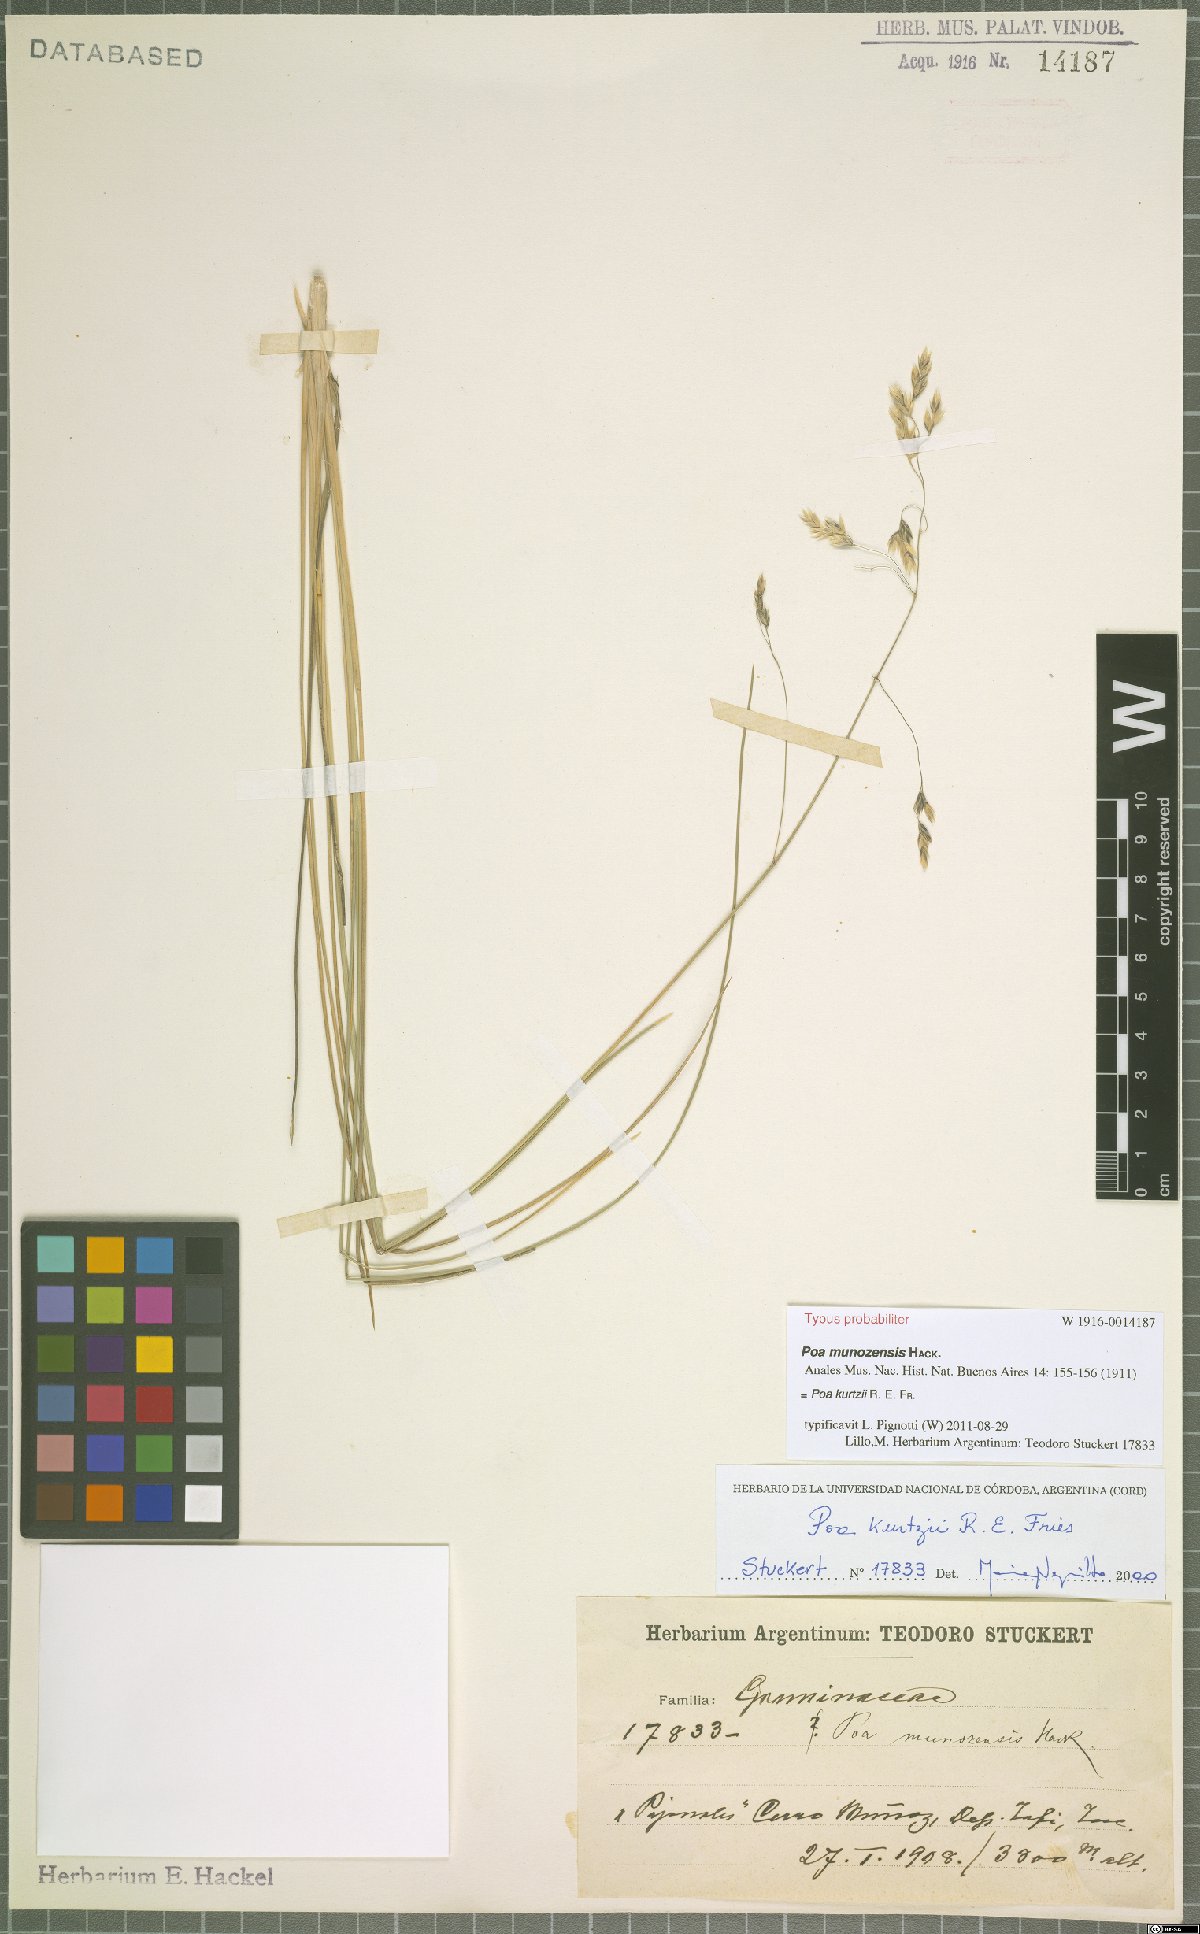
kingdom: Plantae
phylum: Tracheophyta
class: Liliopsida
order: Poales
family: Poaceae
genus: Poa
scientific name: Poa kurtzii
